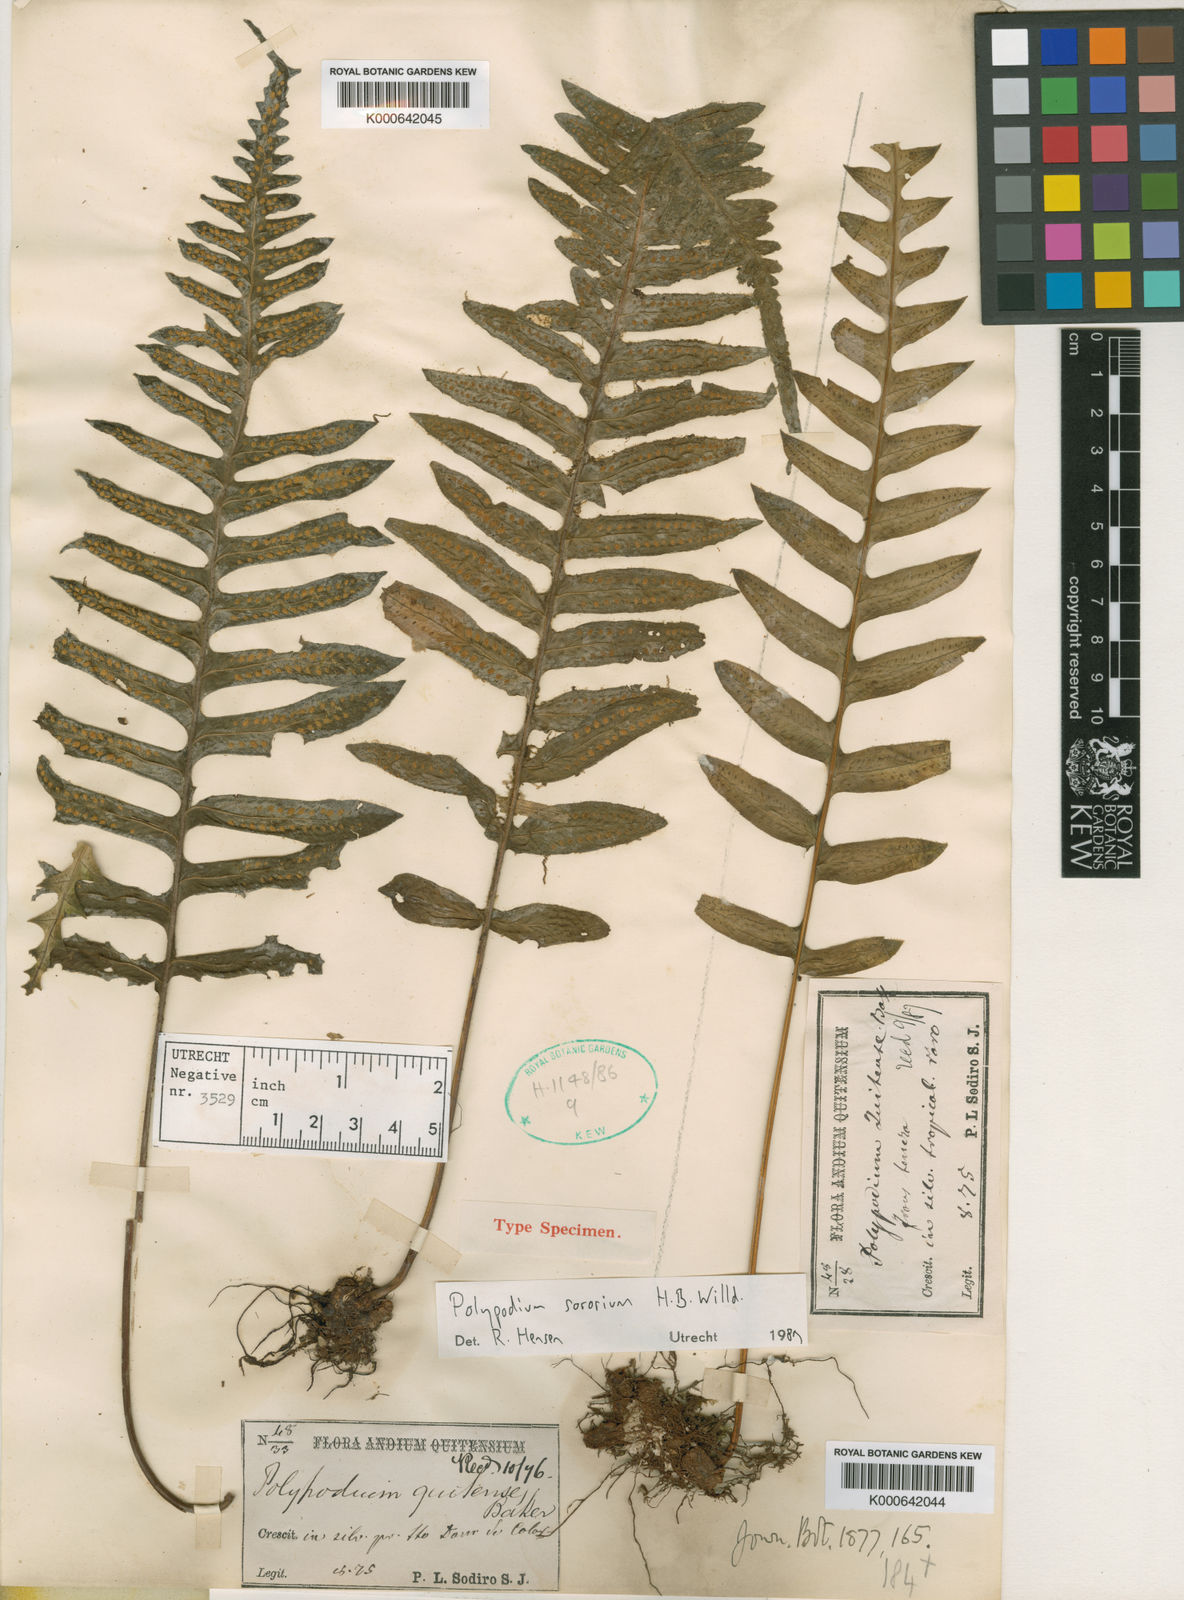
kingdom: Plantae
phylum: Tracheophyta
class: Polypodiopsida
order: Polypodiales
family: Polypodiaceae
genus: Pecluma
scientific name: Pecluma dulcis
